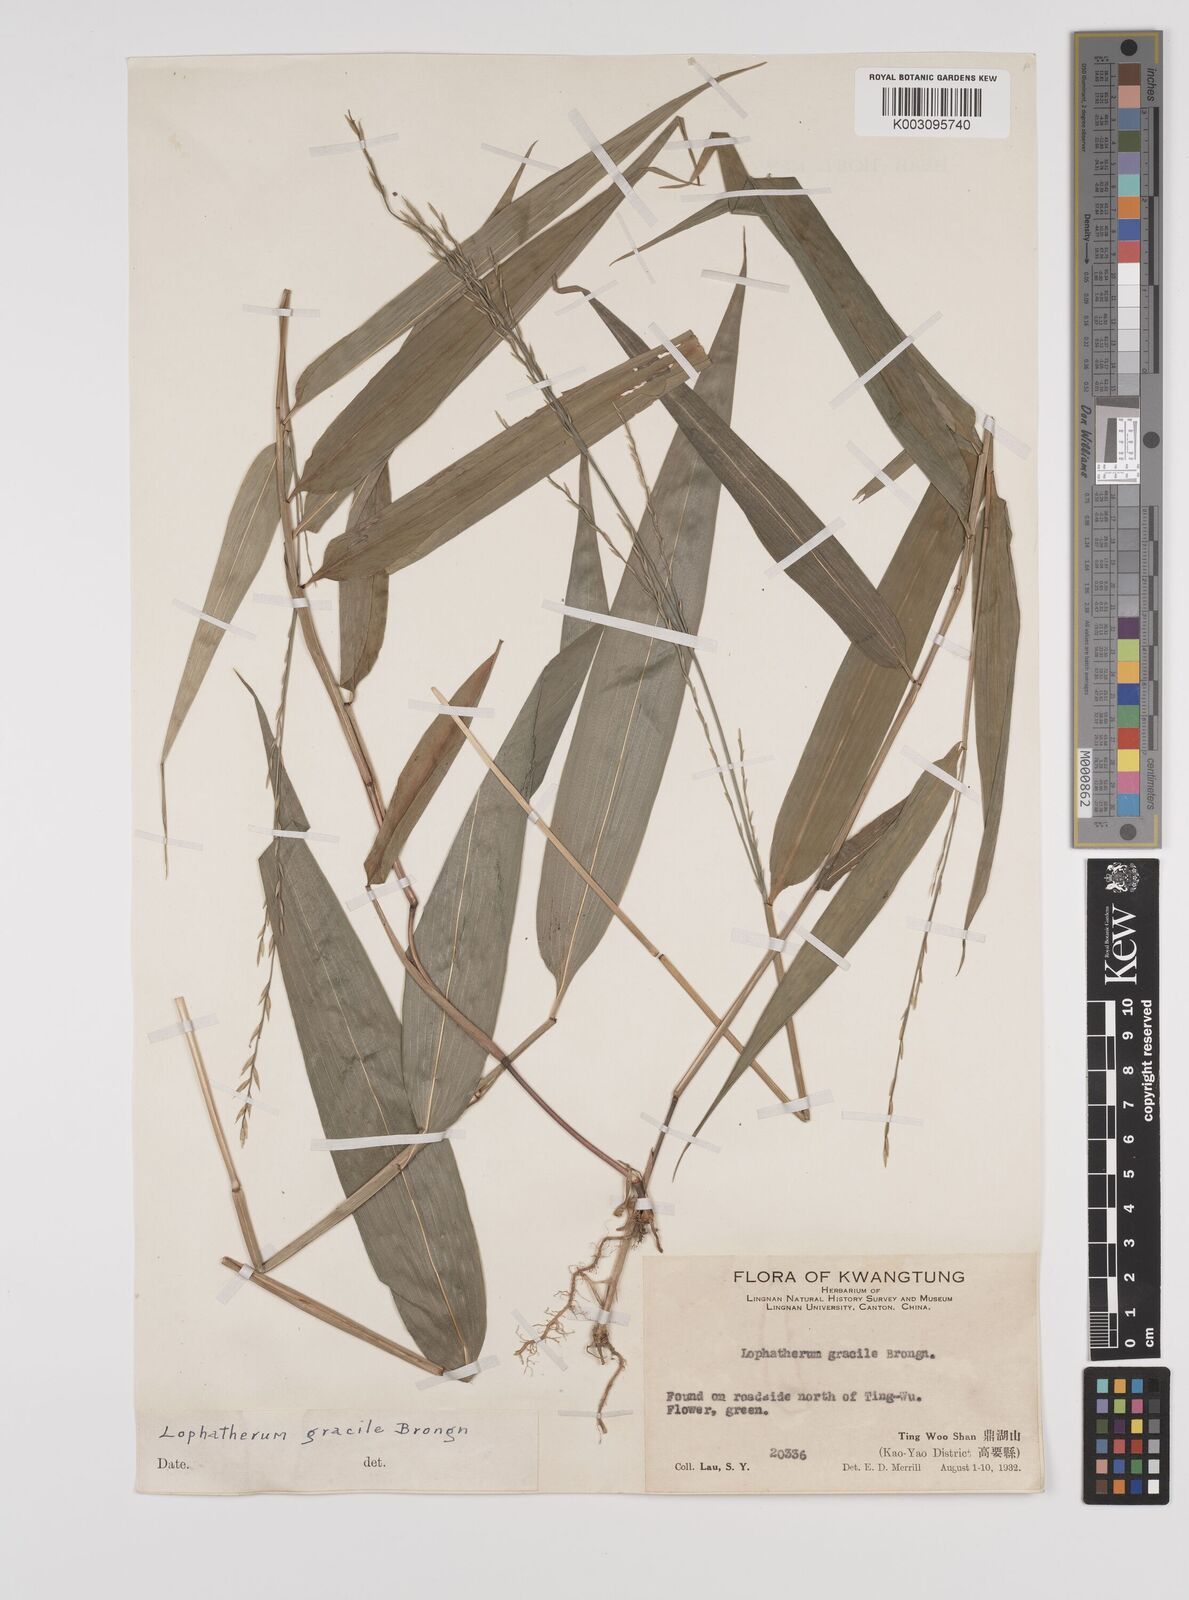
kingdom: Plantae
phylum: Tracheophyta
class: Liliopsida
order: Poales
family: Poaceae
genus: Lophatherum
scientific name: Lophatherum gracile
